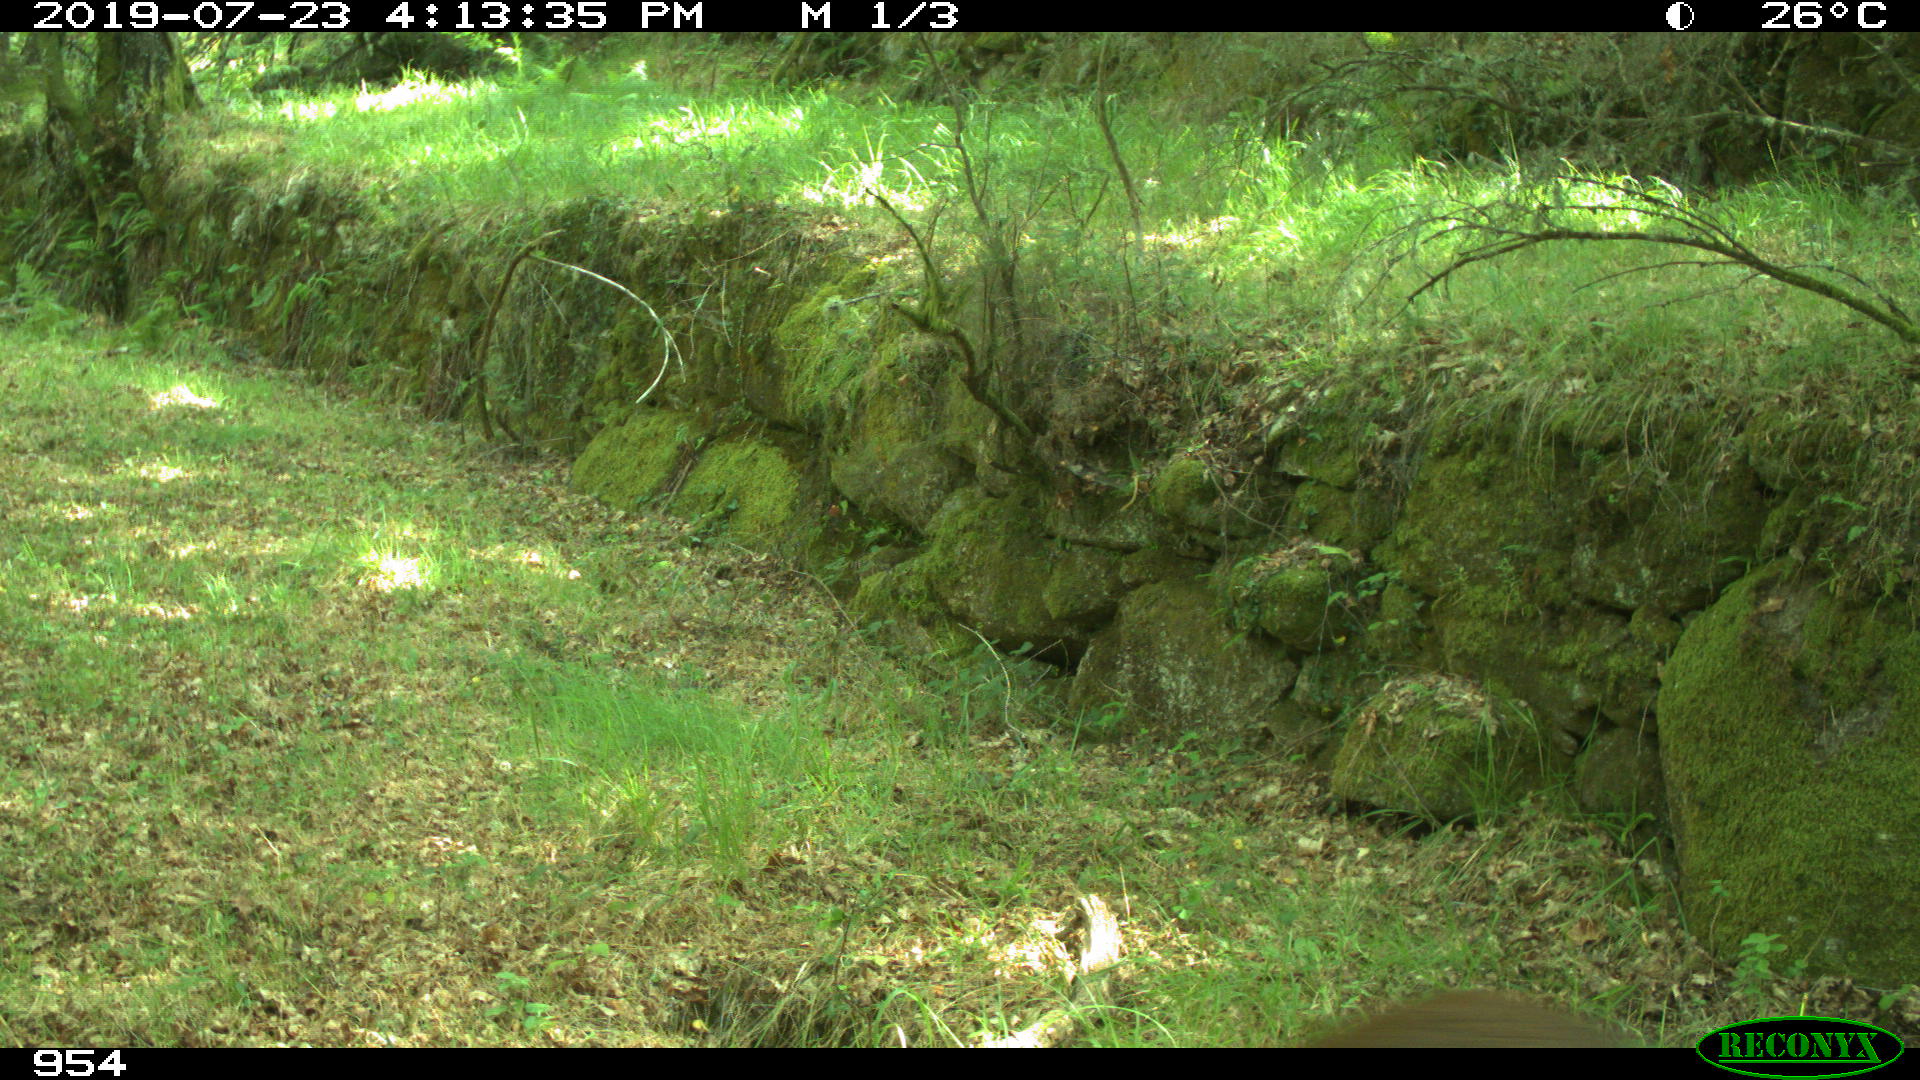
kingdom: Animalia
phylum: Chordata
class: Mammalia
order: Artiodactyla
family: Suidae
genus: Sus
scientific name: Sus scrofa
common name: Wild boar
